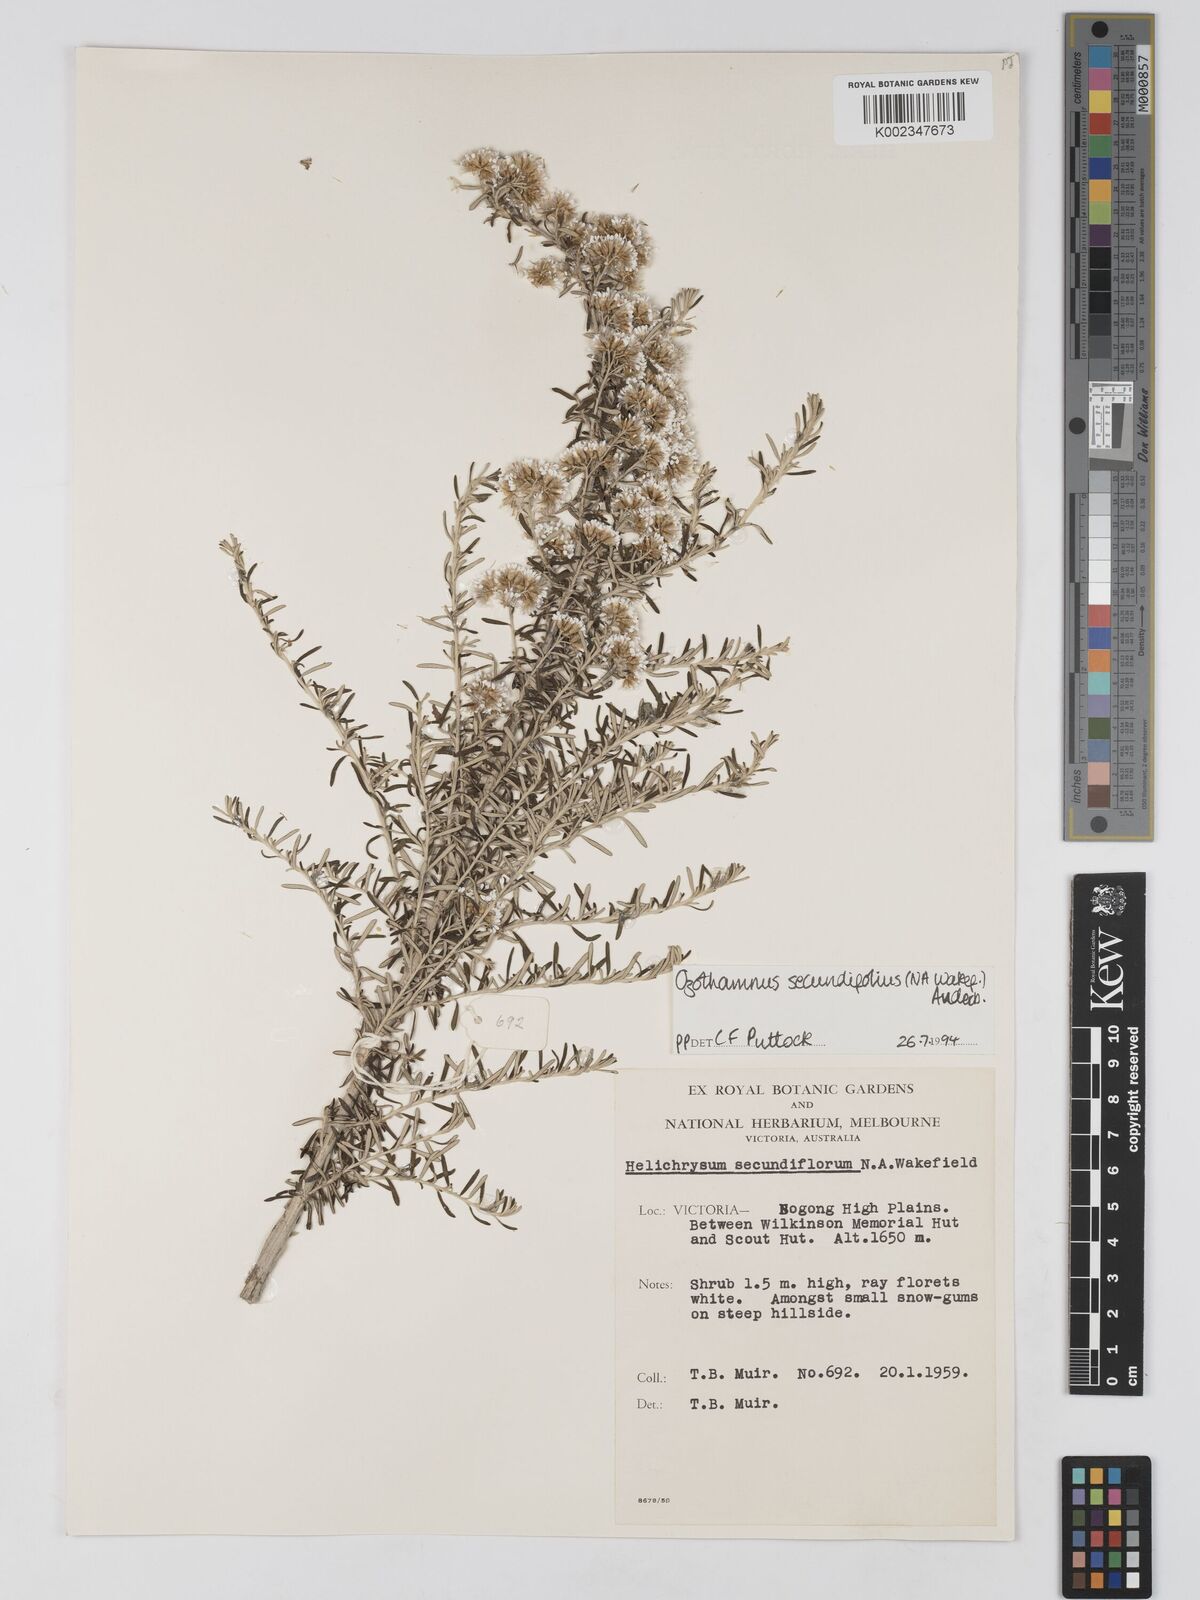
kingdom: Plantae
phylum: Tracheophyta
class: Magnoliopsida
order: Asterales
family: Asteraceae
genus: Ozothamnus
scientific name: Ozothamnus secundiflorus
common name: Cascade everlasting
